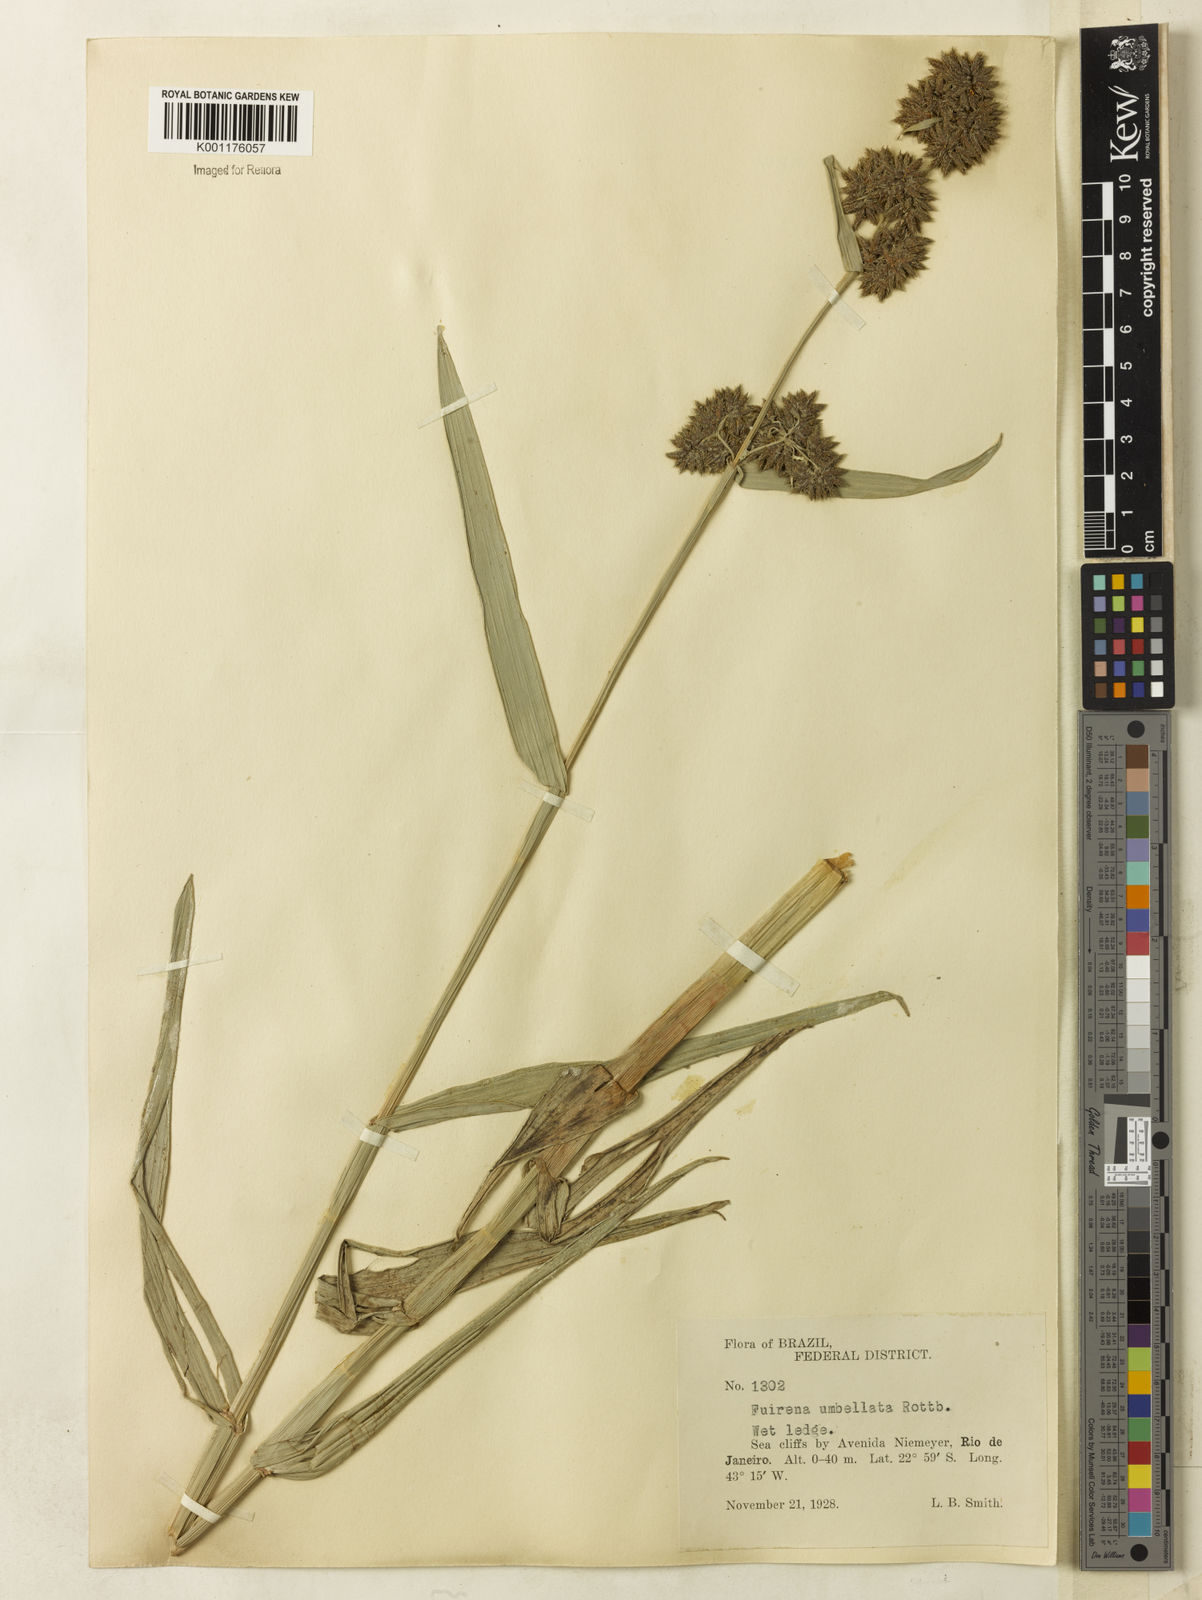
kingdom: Plantae
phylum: Tracheophyta
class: Liliopsida
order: Poales
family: Cyperaceae
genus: Fuirena
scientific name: Fuirena umbellata
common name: Yefen
